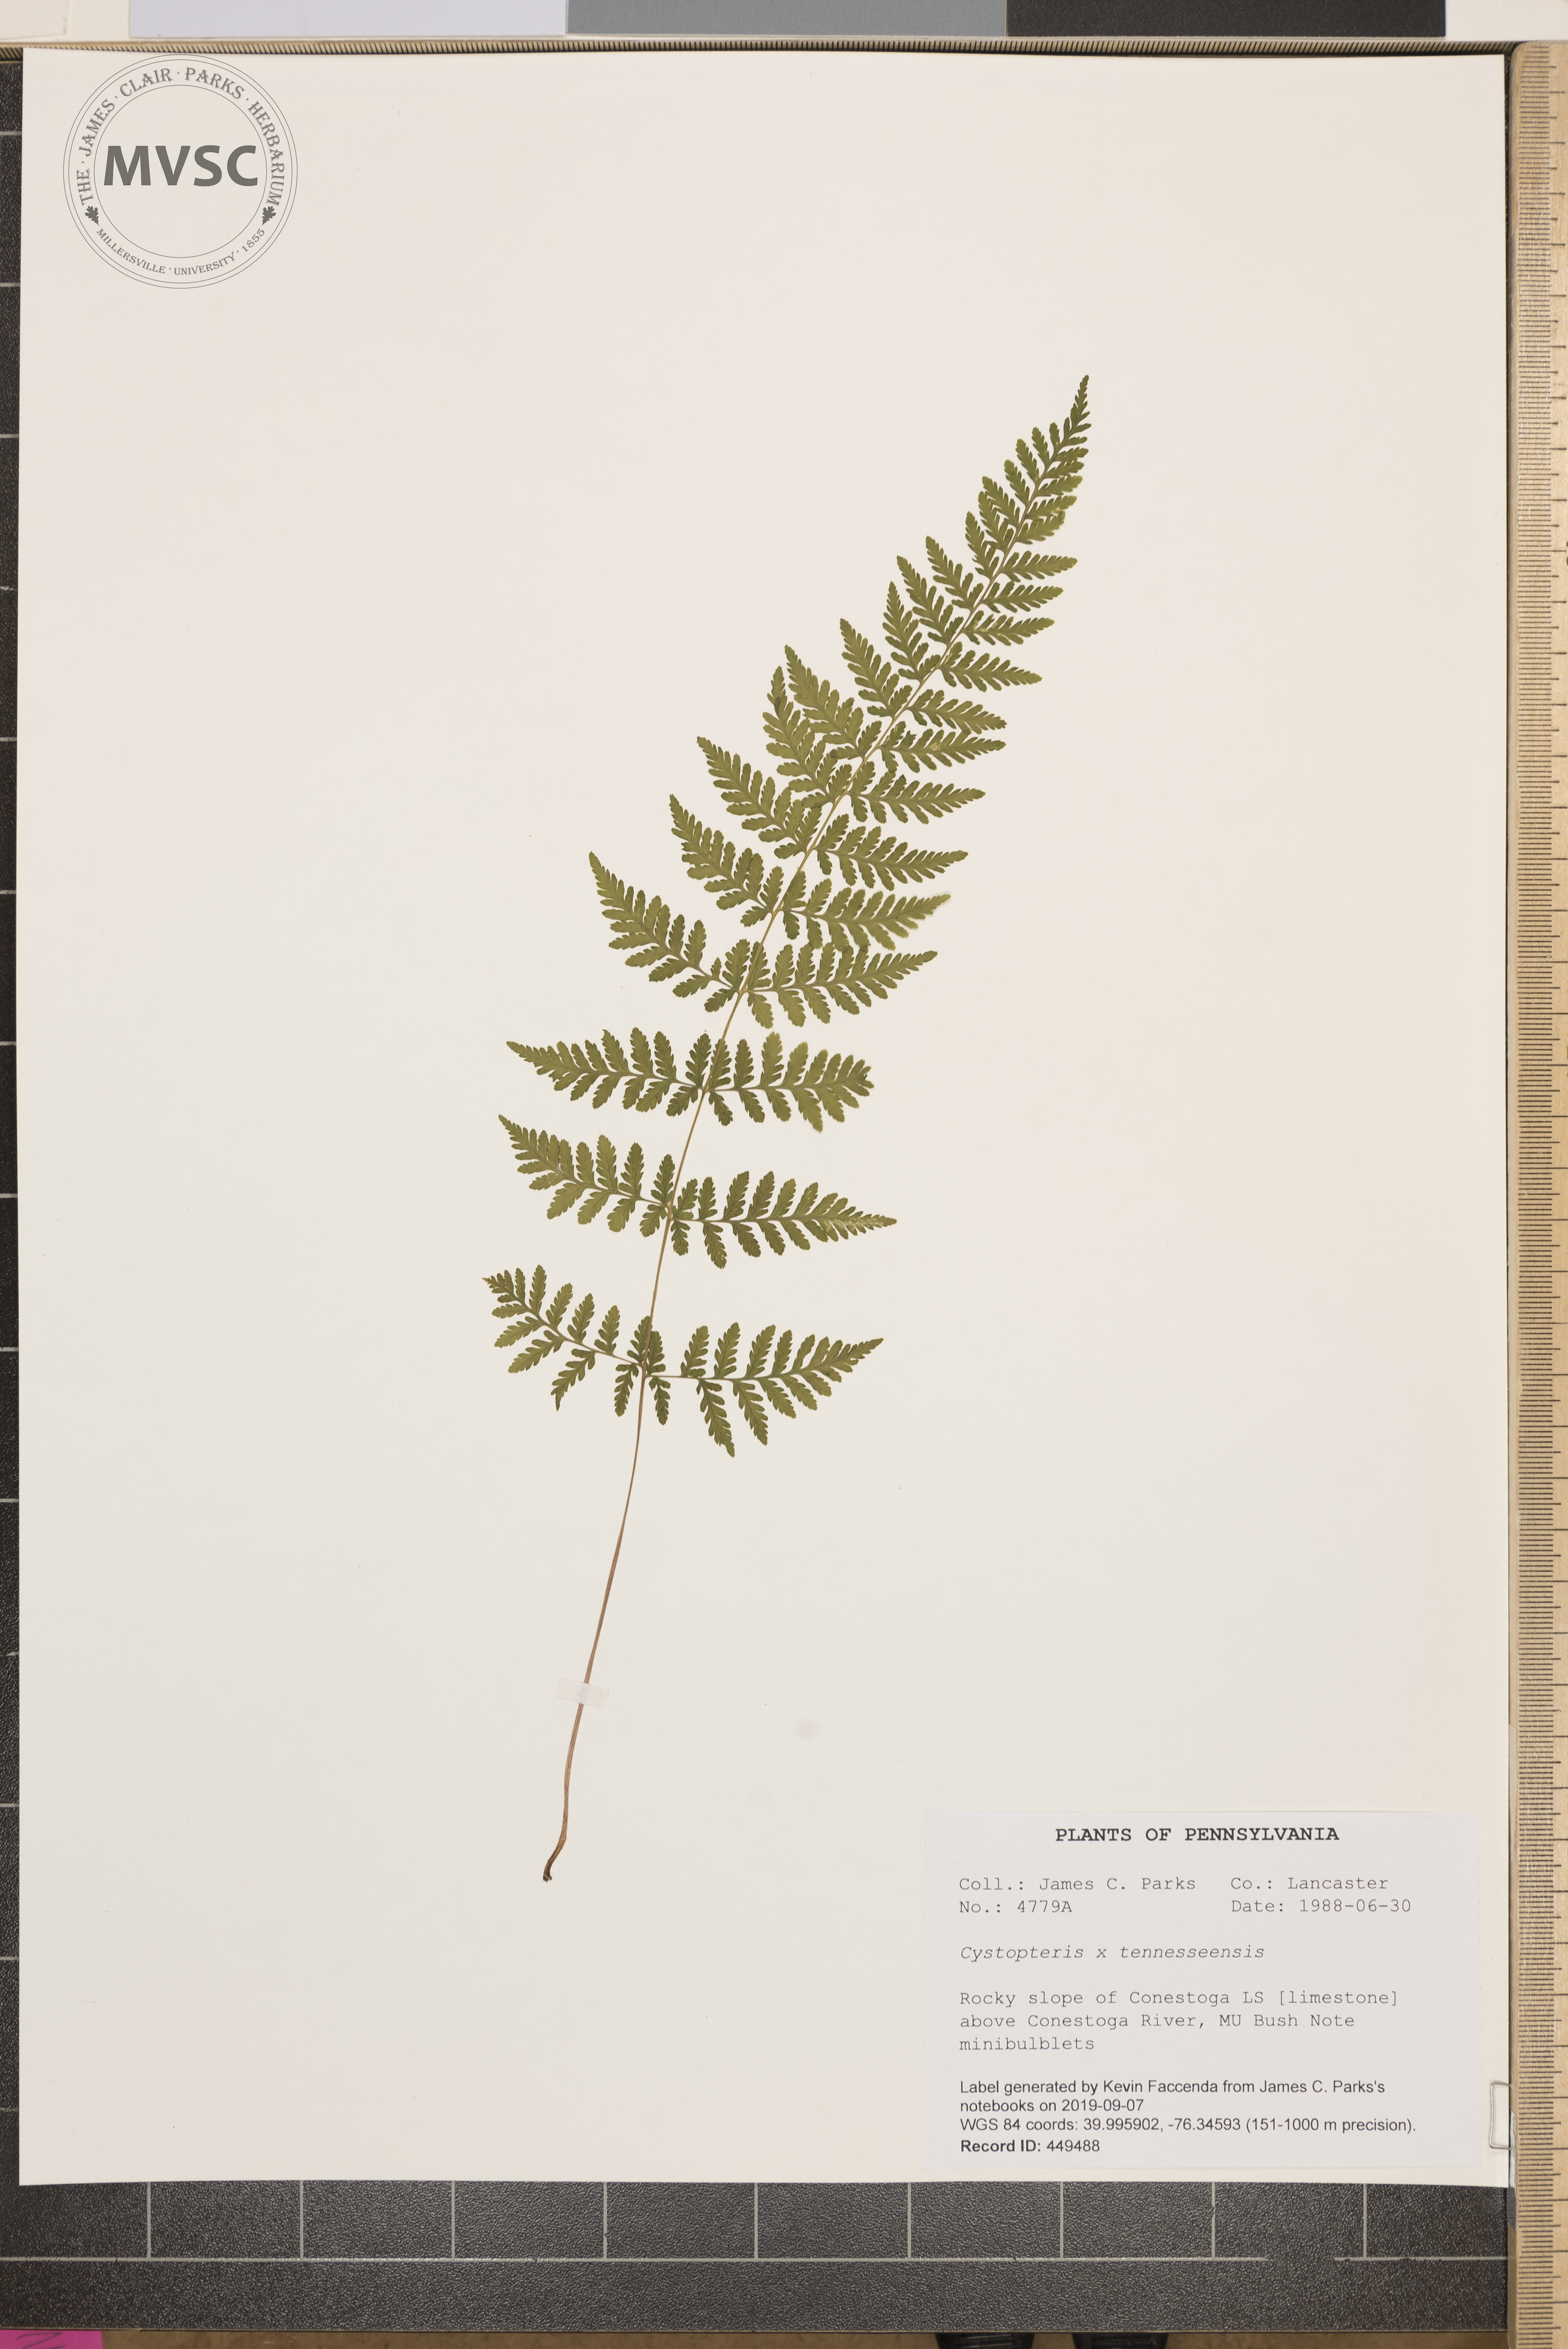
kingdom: Plantae
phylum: Tracheophyta
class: Polypodiopsida
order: Polypodiales
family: Cystopteridaceae
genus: Cystopteris
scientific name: Cystopteris tennesseensis
